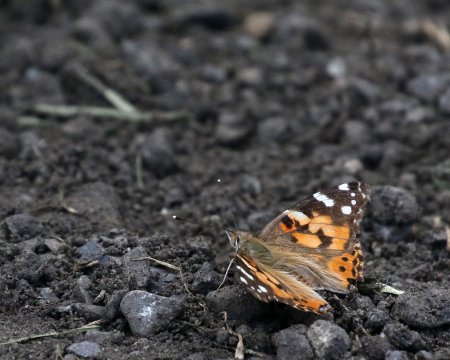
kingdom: Animalia
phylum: Arthropoda
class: Insecta
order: Lepidoptera
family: Nymphalidae
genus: Vanessa
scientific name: Vanessa atalanta
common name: Red Admiral
